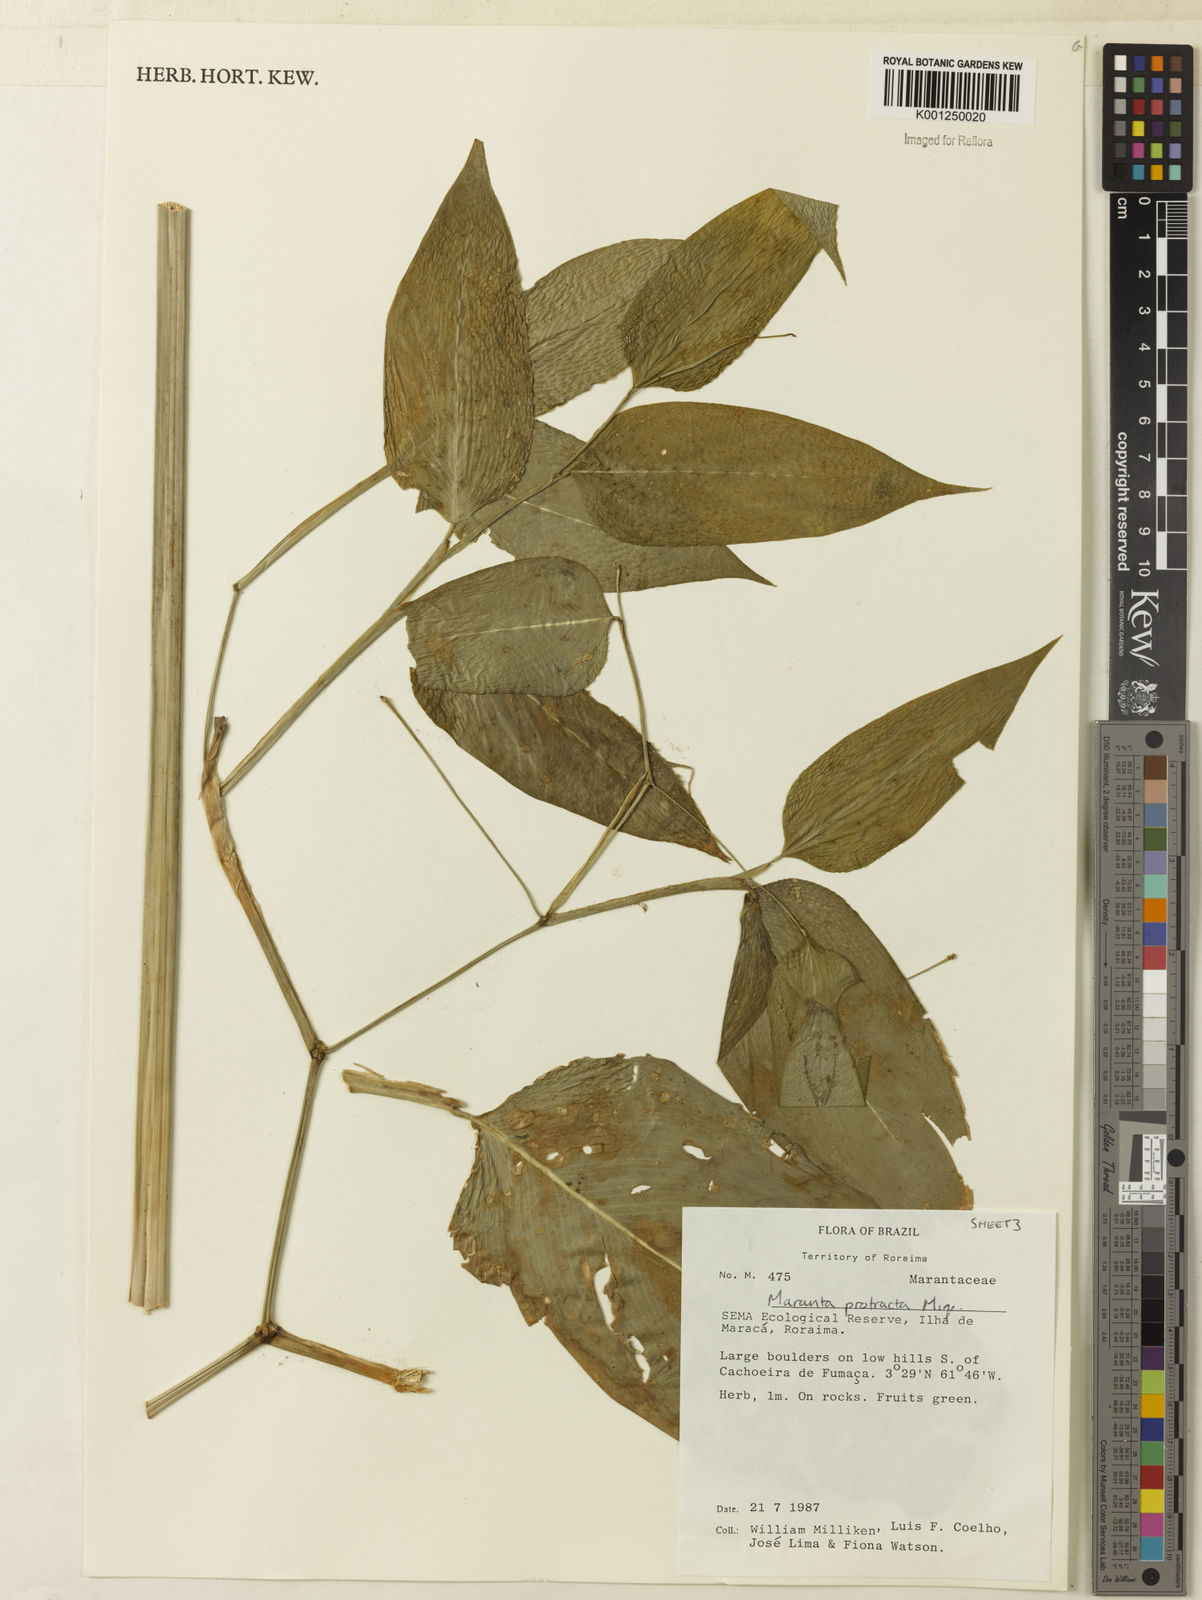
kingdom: Plantae
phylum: Tracheophyta
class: Liliopsida
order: Zingiberales
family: Marantaceae
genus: Maranta
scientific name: Maranta protracta
